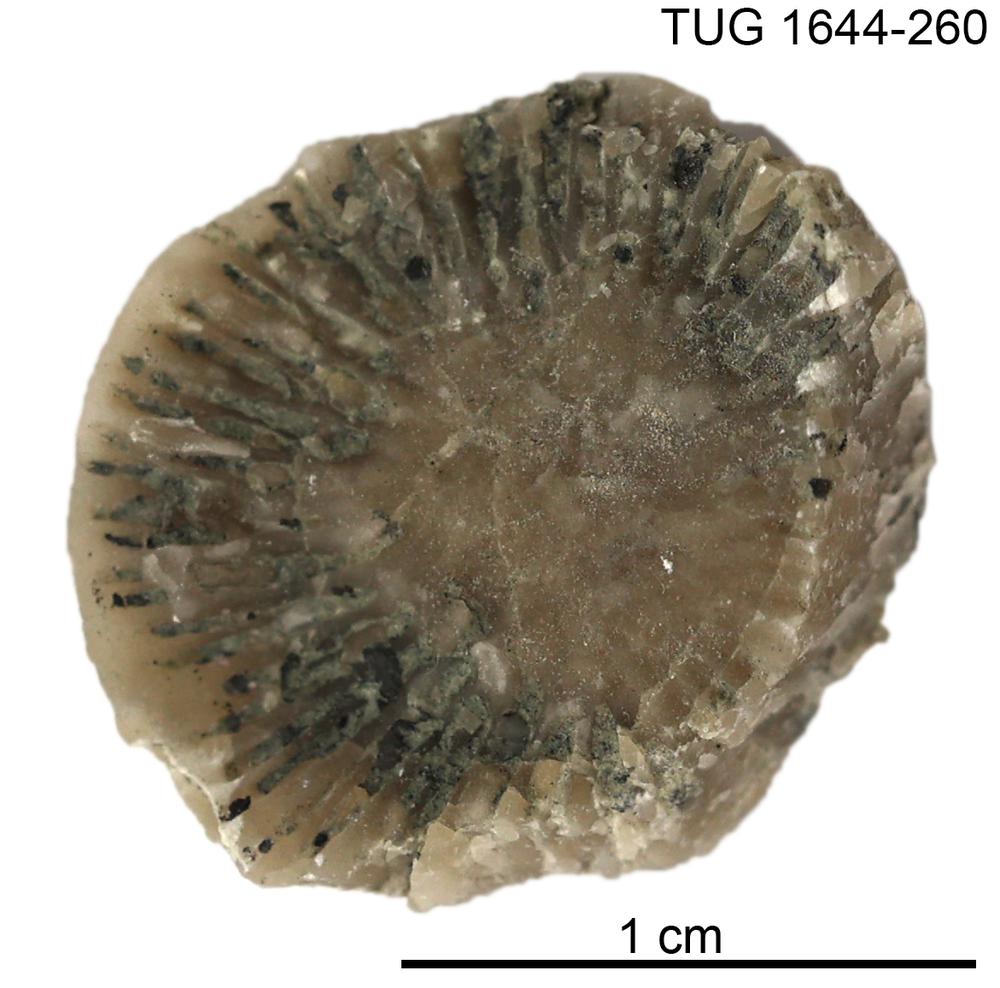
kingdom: Animalia
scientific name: Animalia
